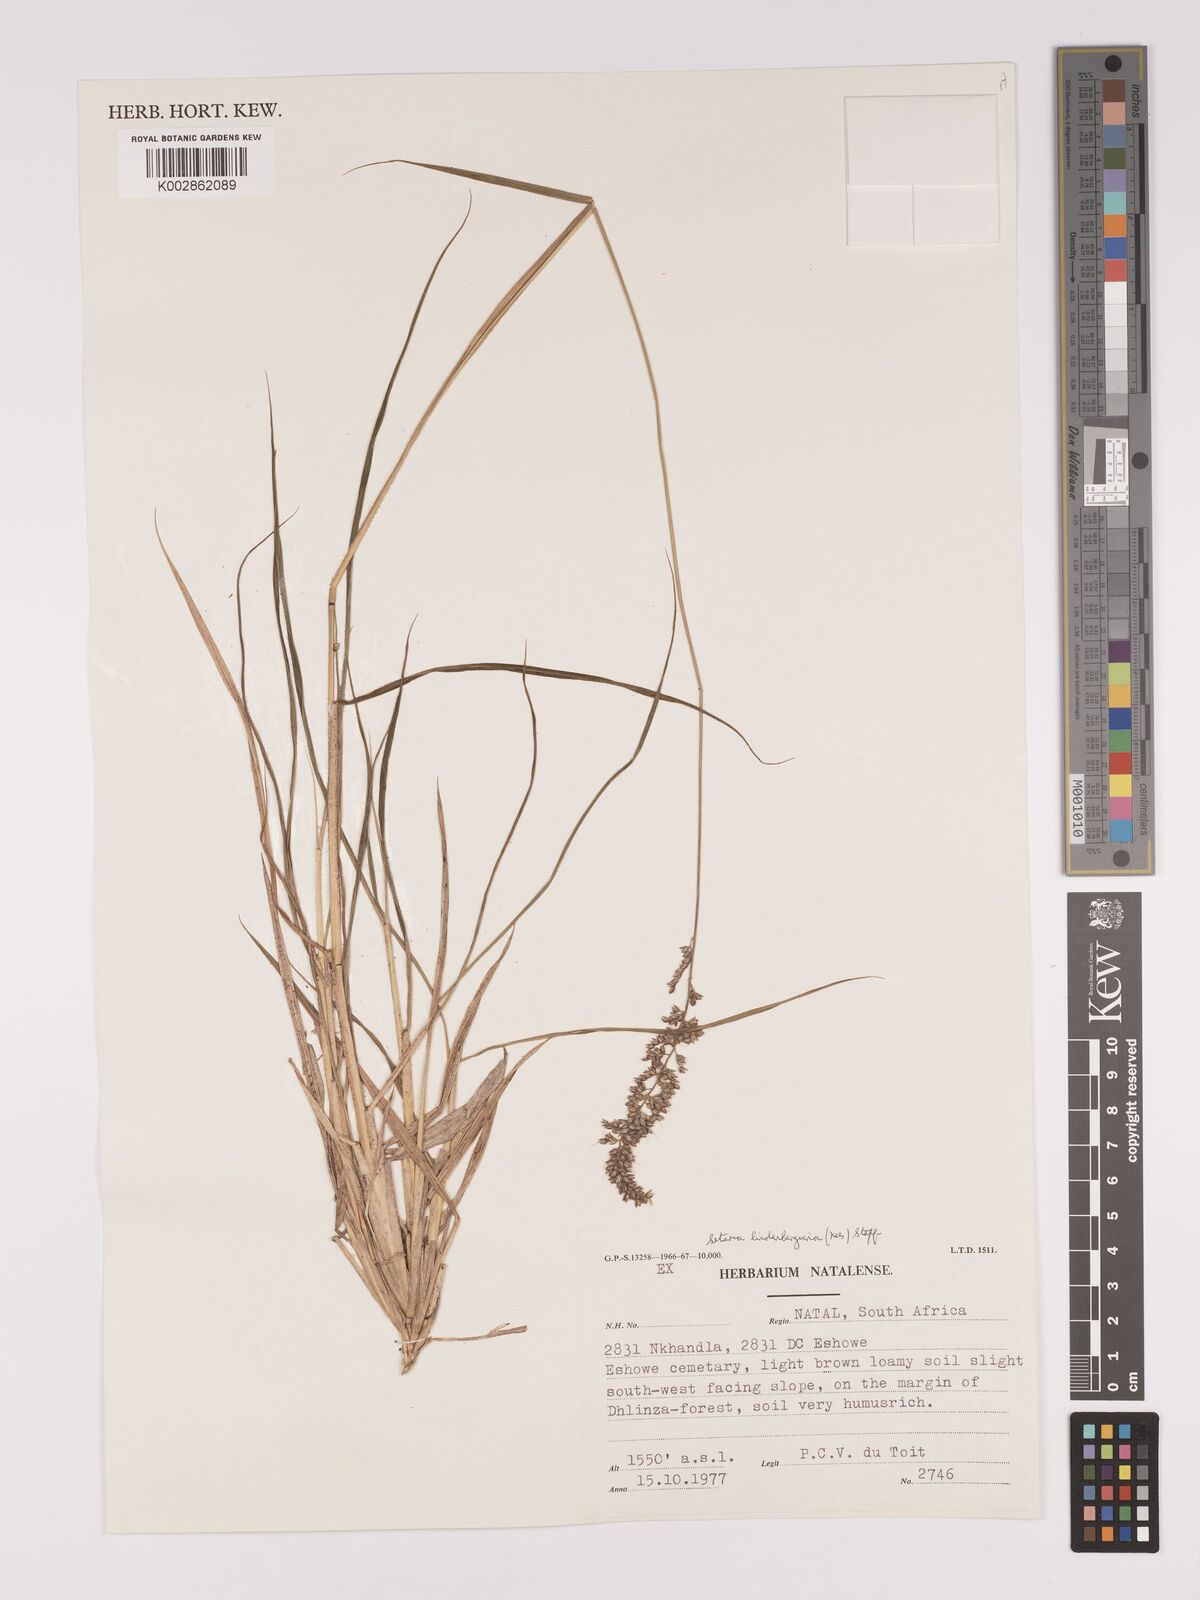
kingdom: Plantae
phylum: Tracheophyta
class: Liliopsida
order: Poales
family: Poaceae
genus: Setaria
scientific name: Setaria lindenbergiana
